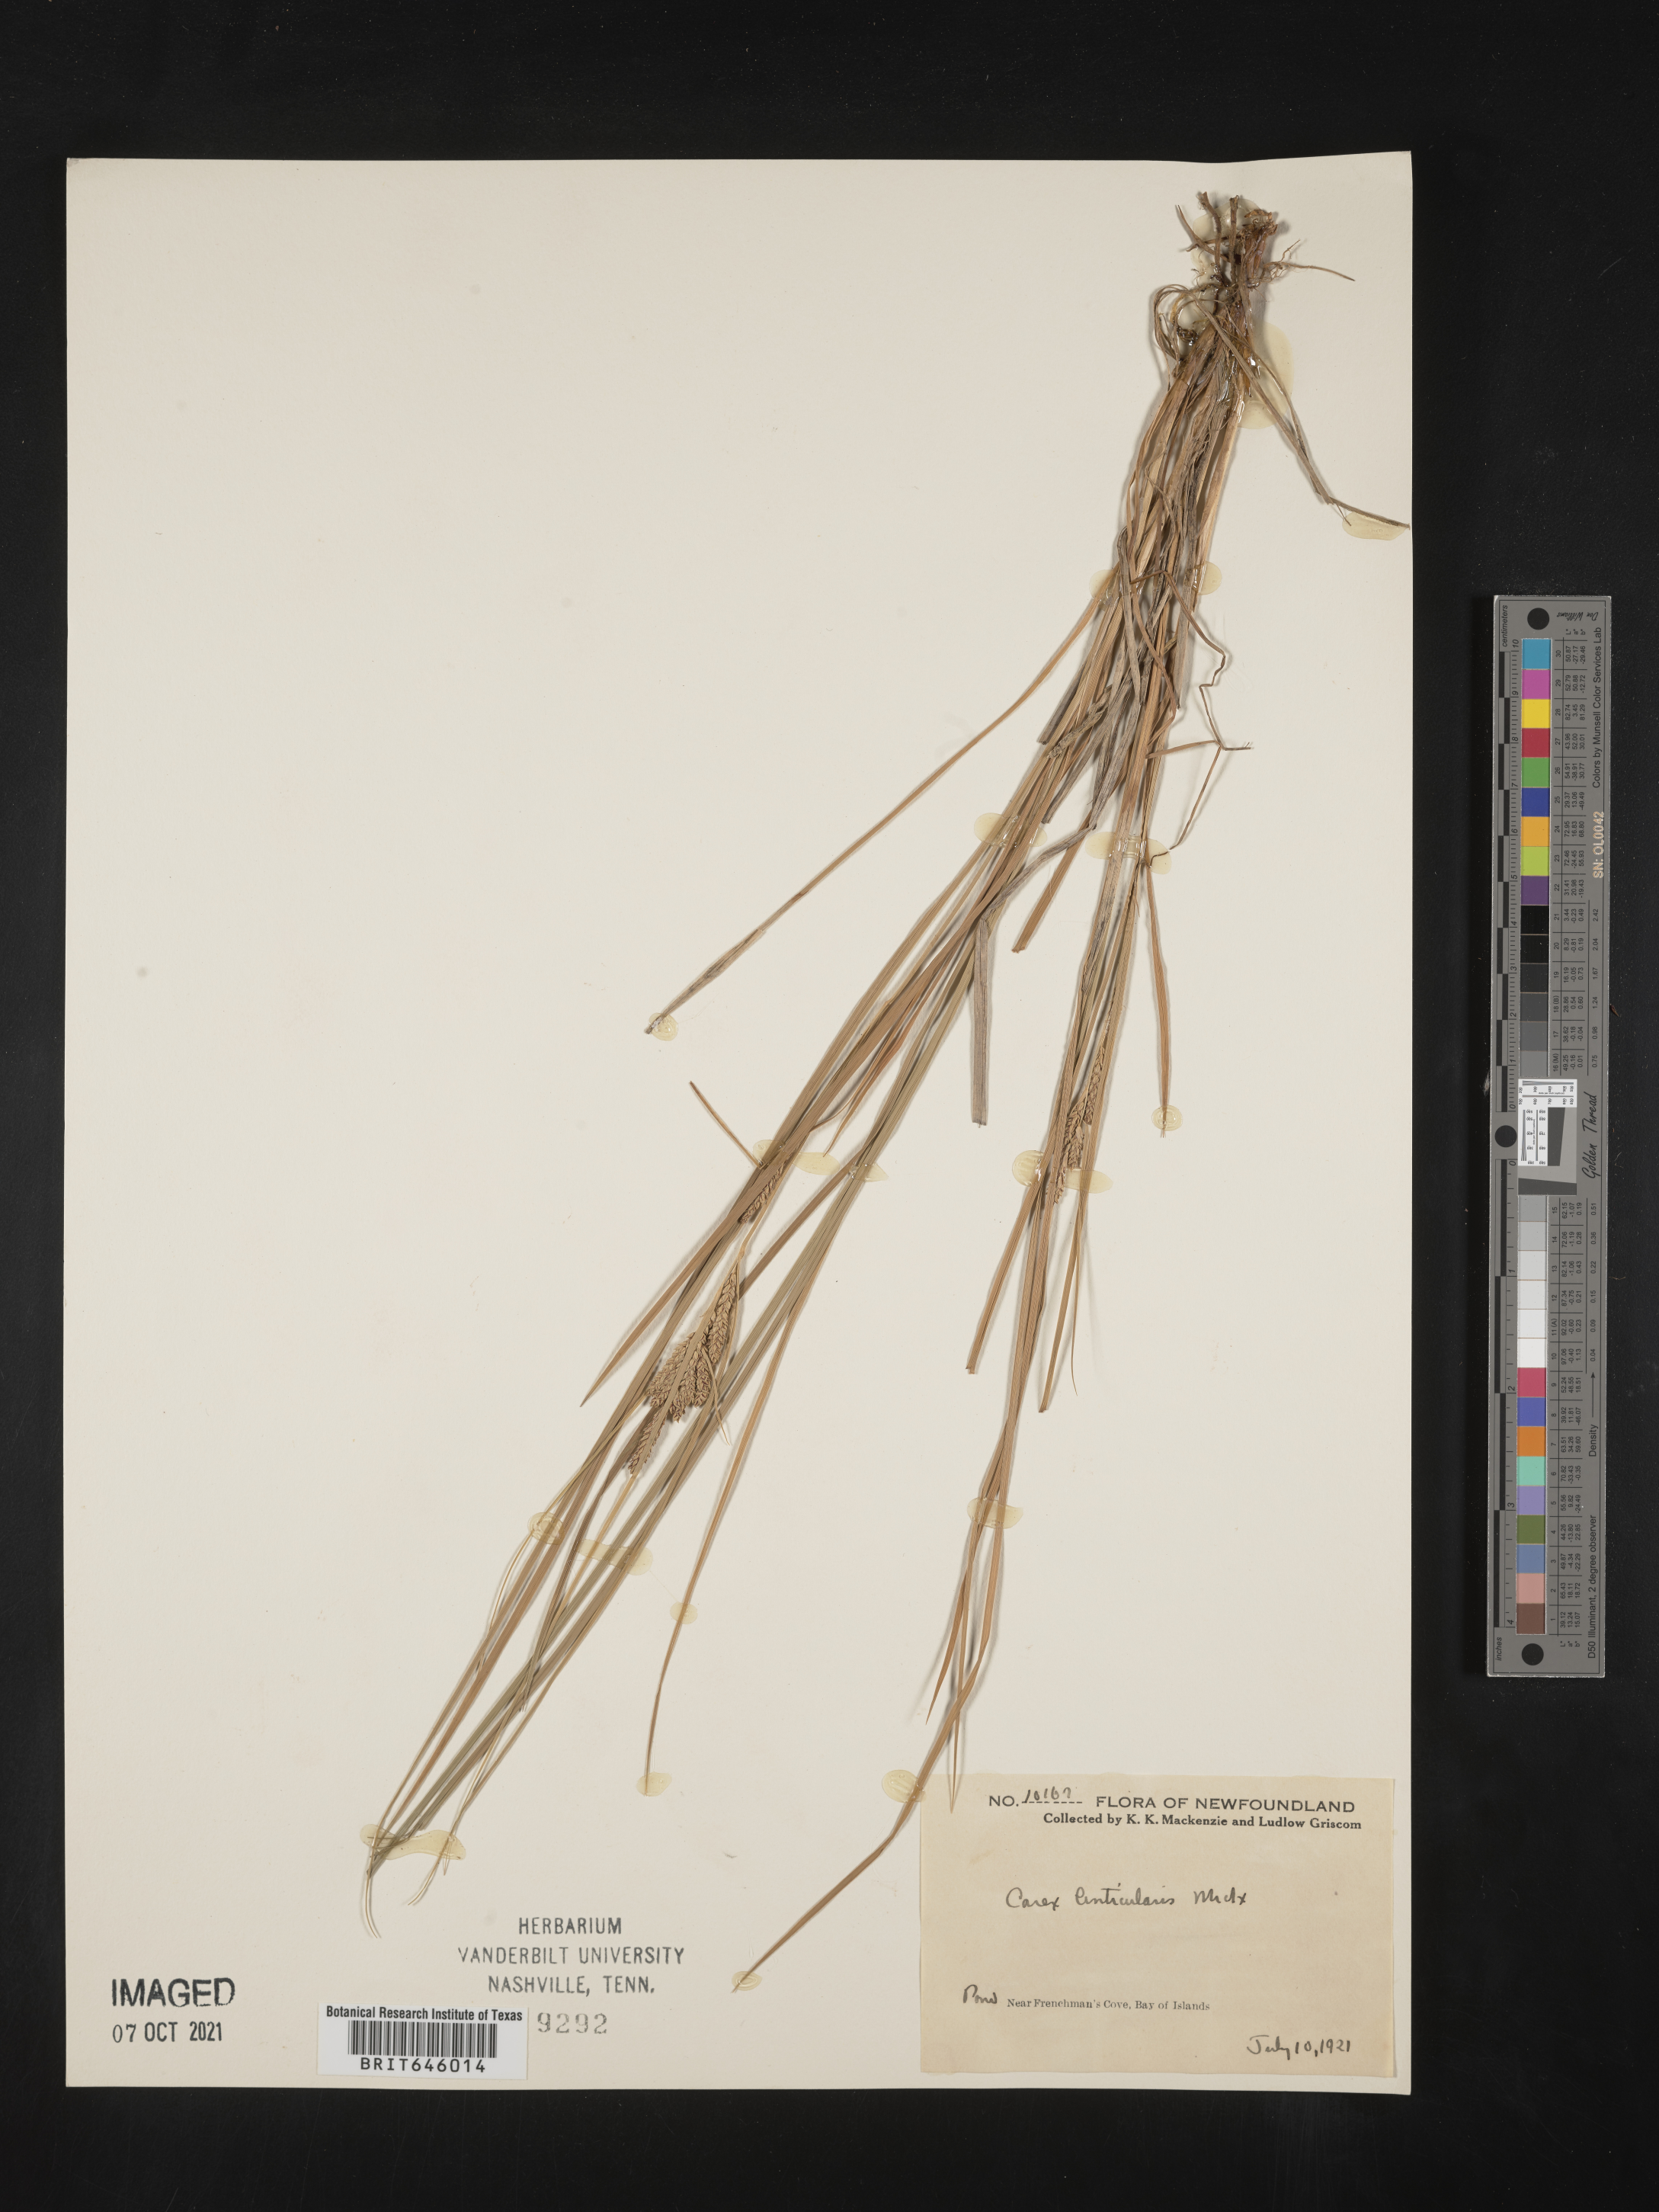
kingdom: Plantae
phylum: Tracheophyta
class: Liliopsida
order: Poales
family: Cyperaceae
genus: Carex
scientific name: Carex lenticularis
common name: Lakeshore sedge
